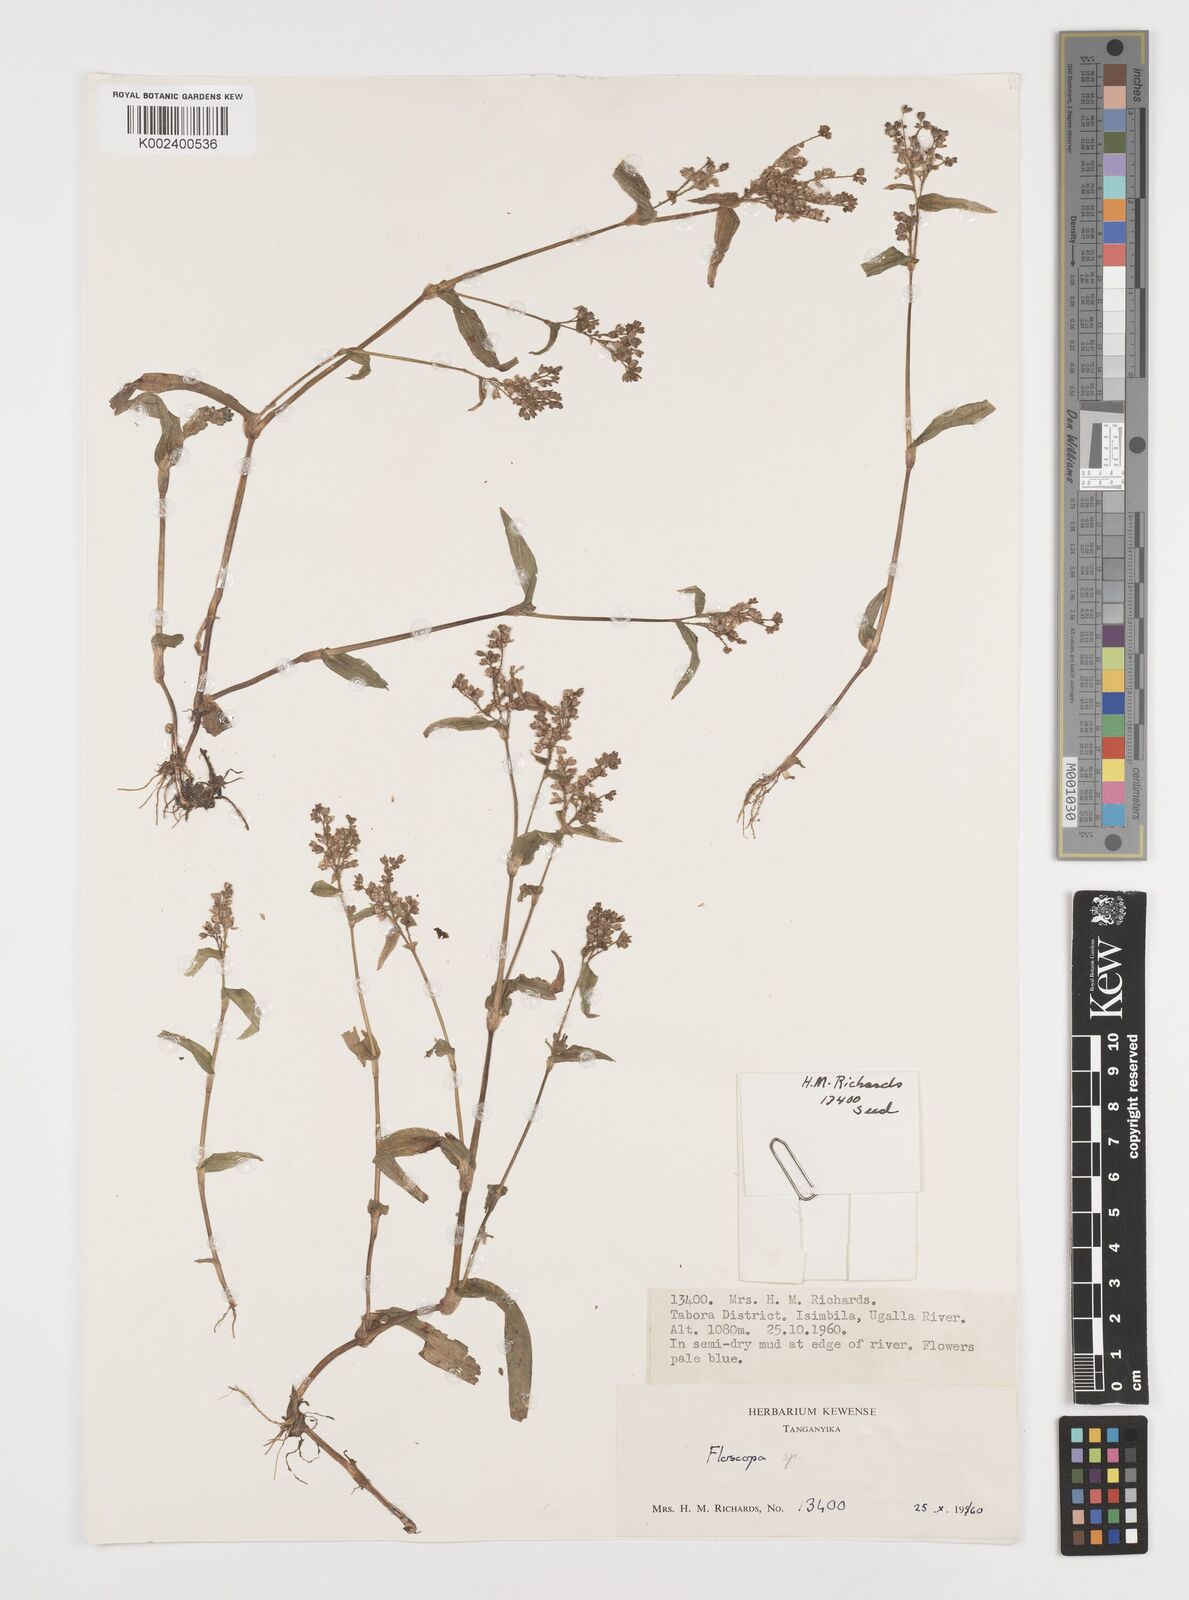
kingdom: Plantae
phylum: Tracheophyta
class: Liliopsida
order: Commelinales
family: Commelinaceae
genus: Floscopa
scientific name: Floscopa
